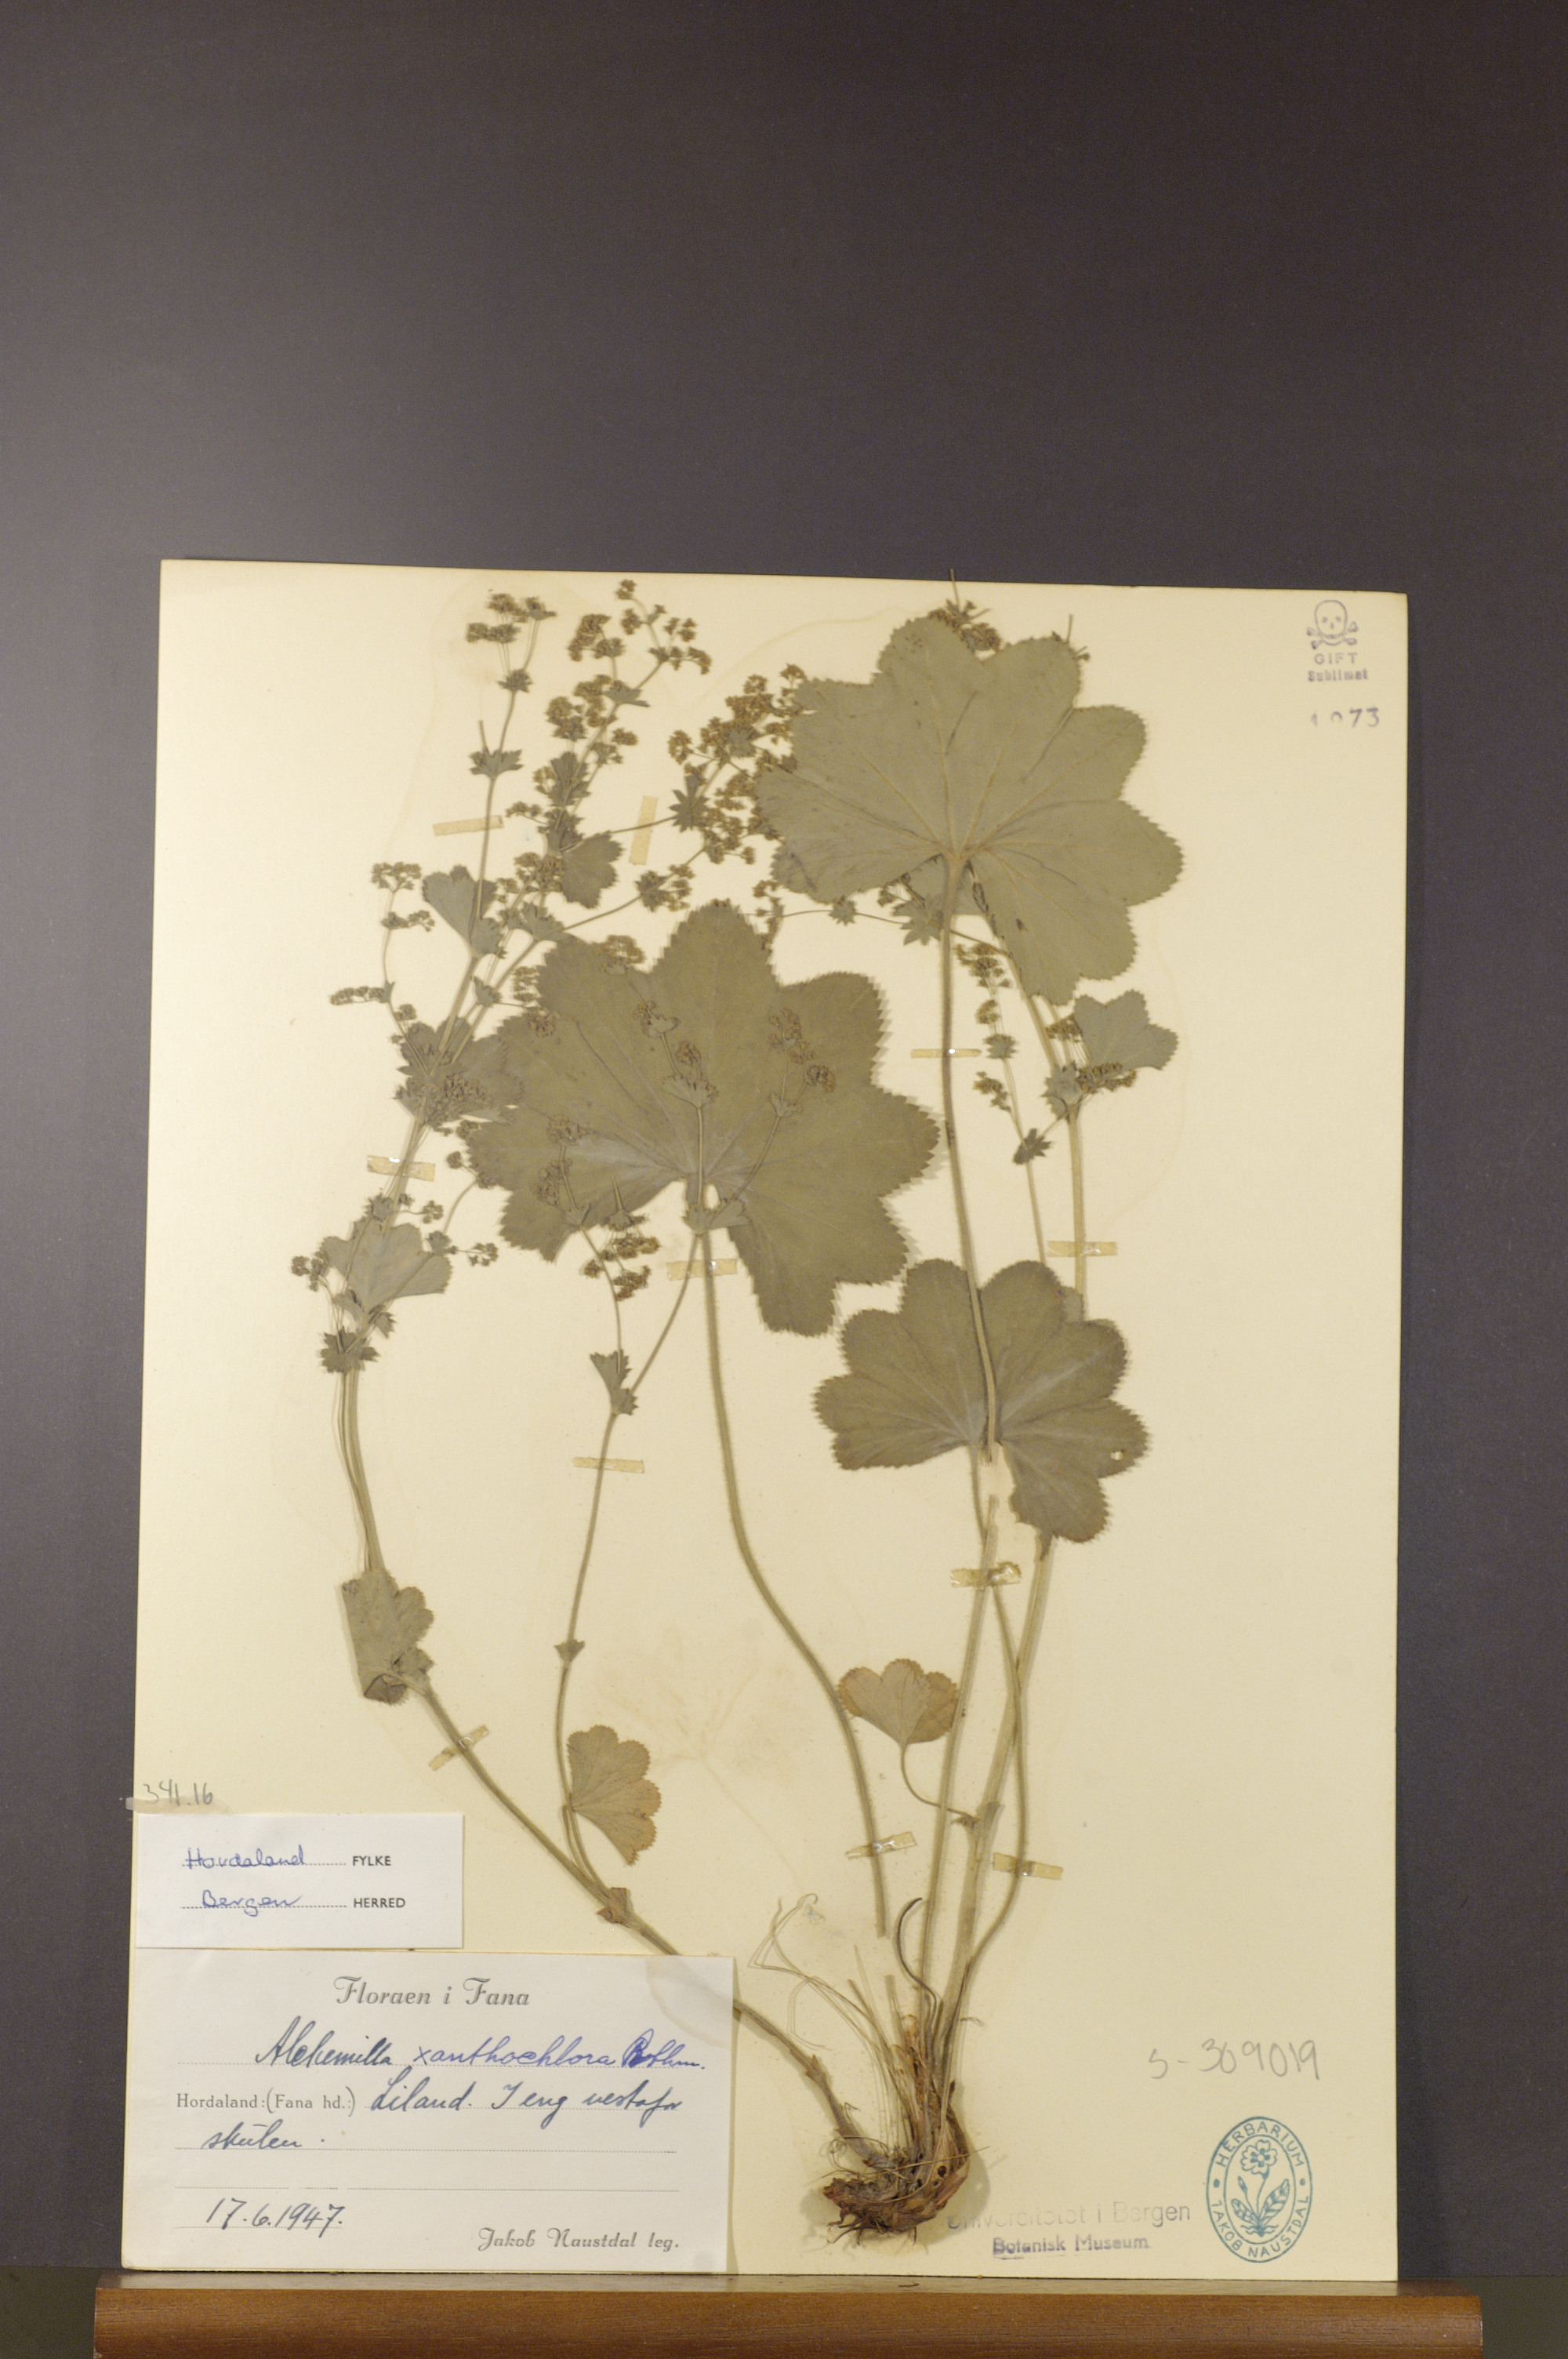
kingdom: Plantae
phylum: Tracheophyta
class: Magnoliopsida
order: Rosales
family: Rosaceae
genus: Alchemilla
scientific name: Alchemilla xanthochlora
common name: Intermediate lady's-mantle
